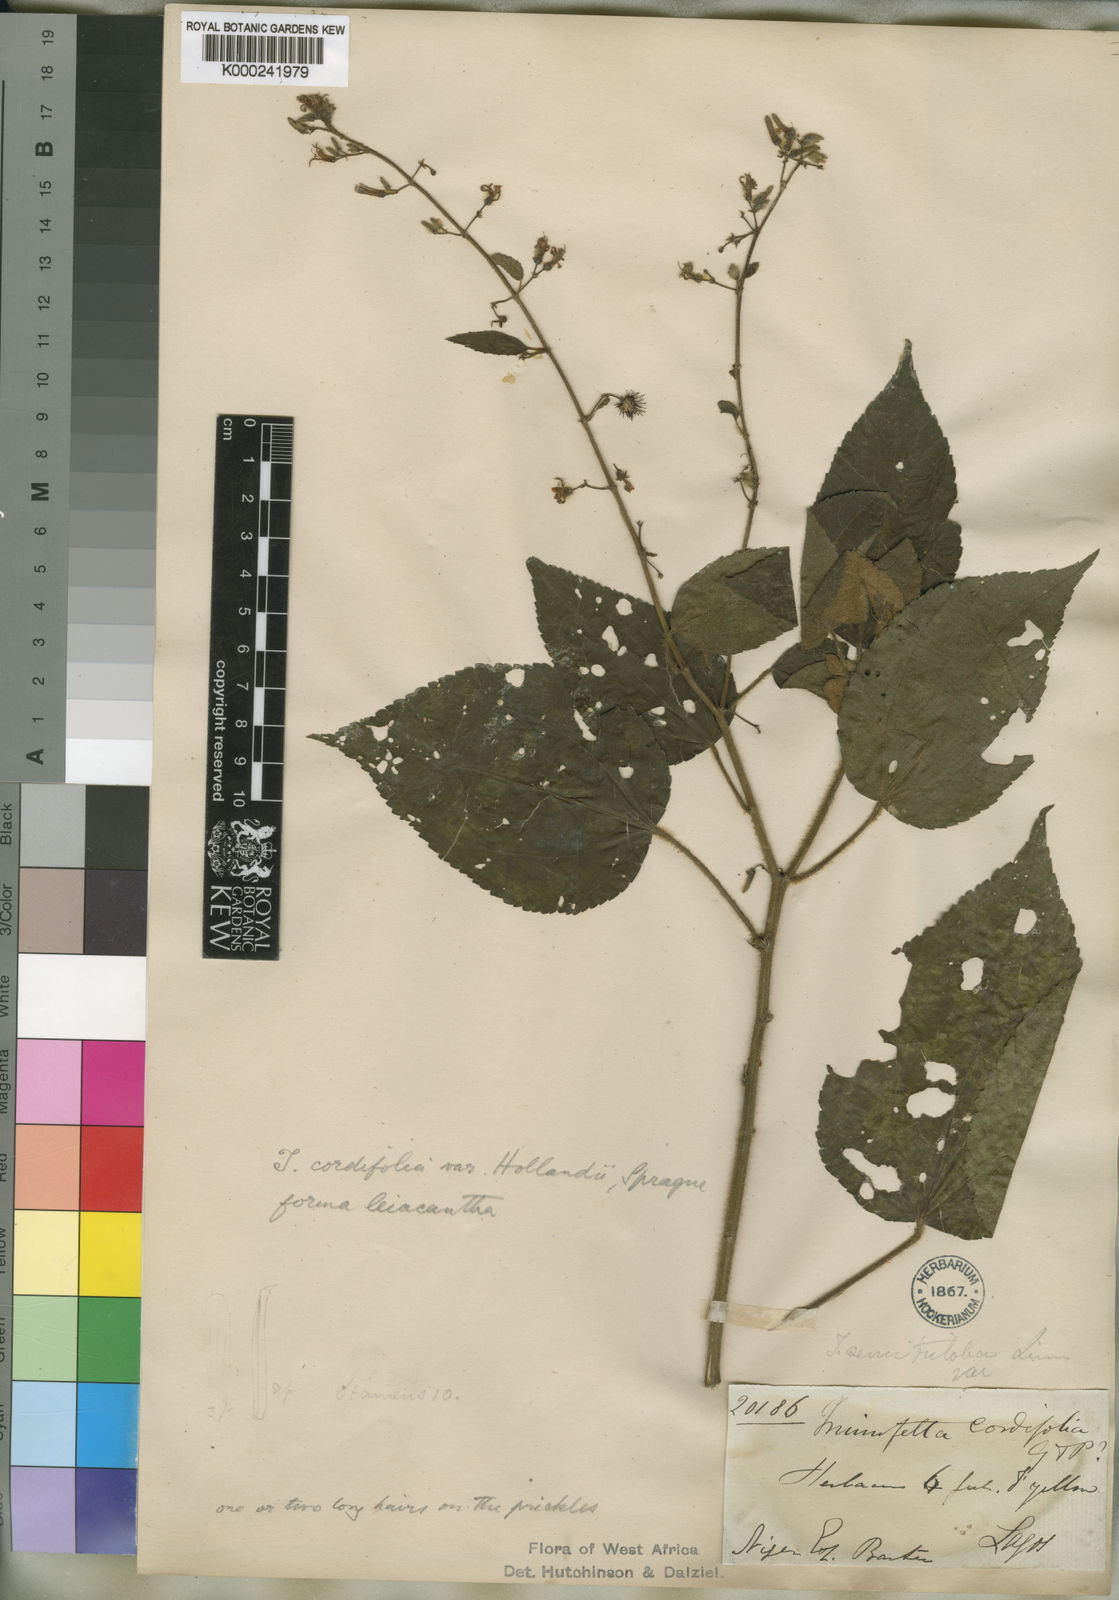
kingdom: Plantae
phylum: Tracheophyta
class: Magnoliopsida
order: Malvales
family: Malvaceae
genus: Triumfetta
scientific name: Triumfetta cordifolia
